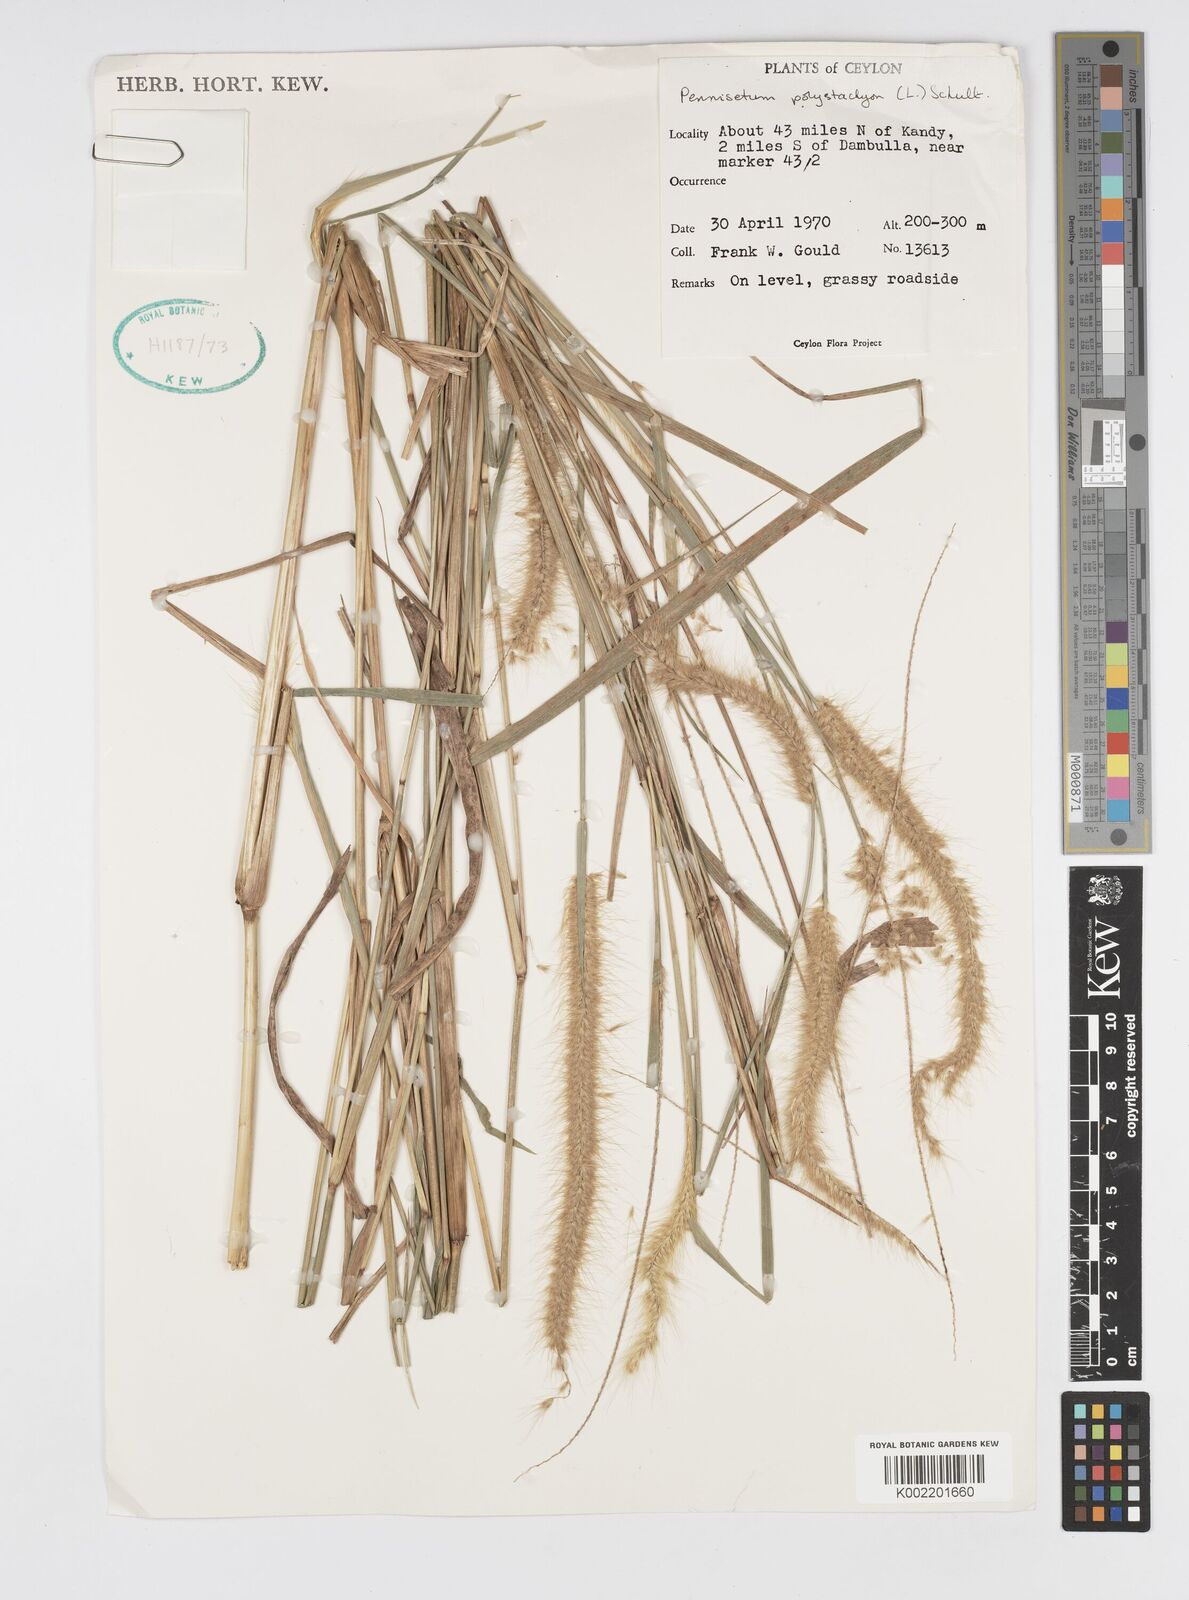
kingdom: Plantae
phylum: Tracheophyta
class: Liliopsida
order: Poales
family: Poaceae
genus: Setaria
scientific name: Setaria parviflora
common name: Knotroot bristle-grass
